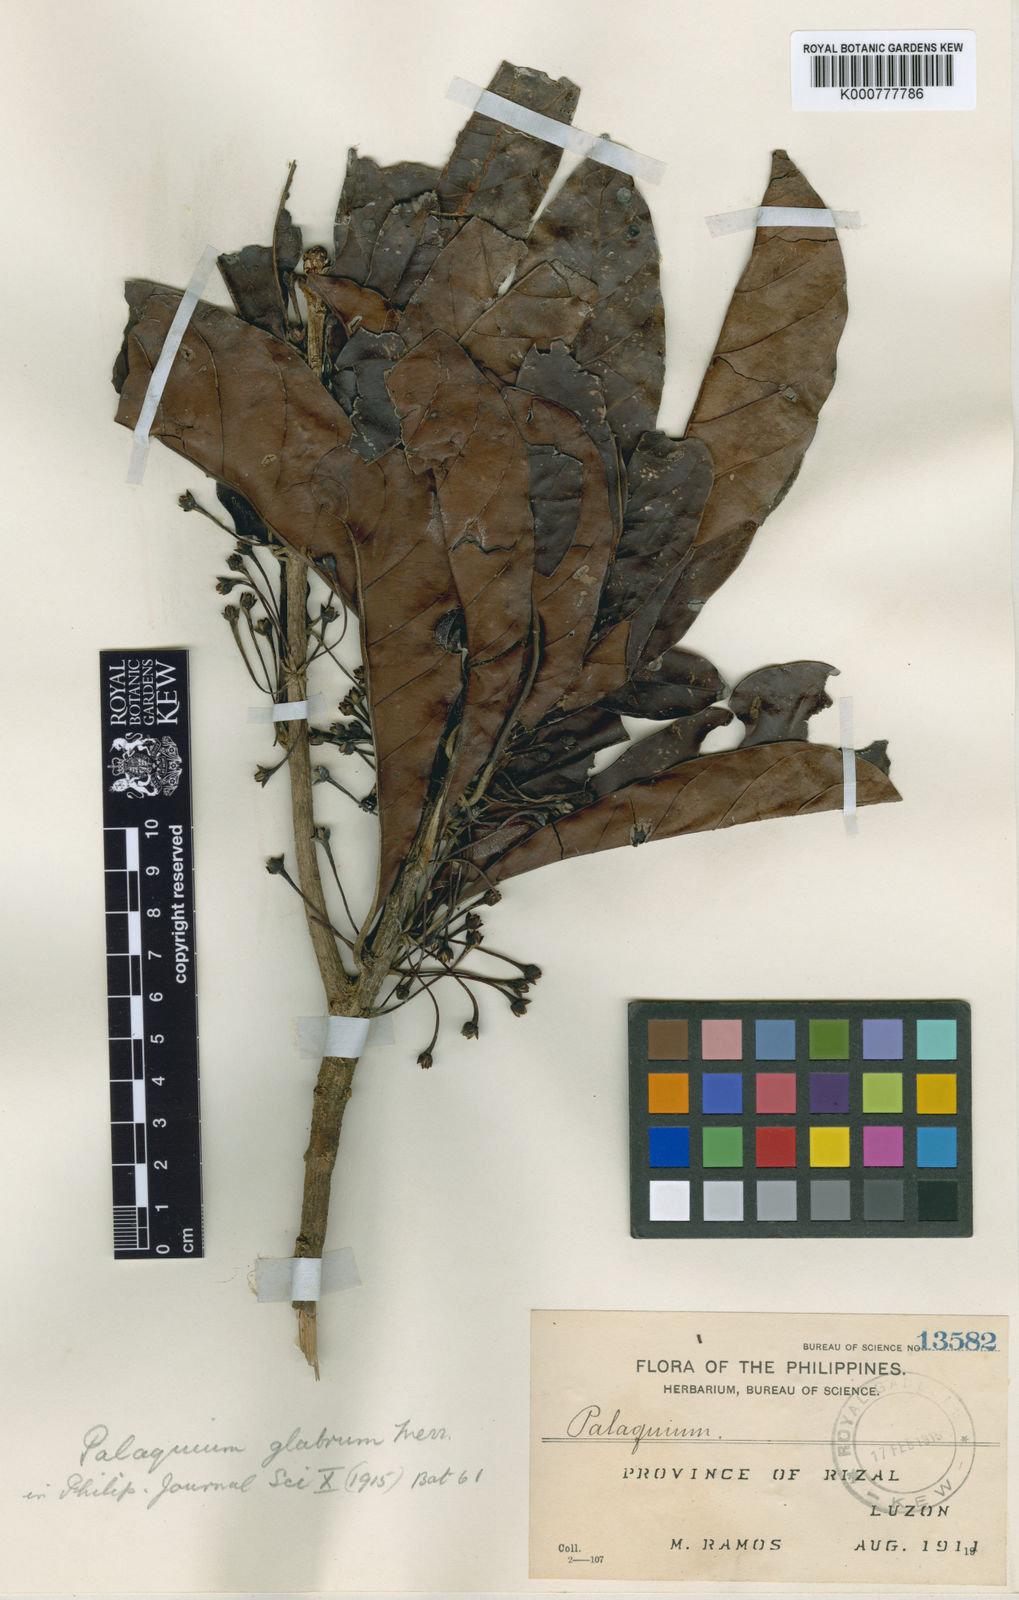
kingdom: Plantae
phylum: Tracheophyta
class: Magnoliopsida
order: Ericales
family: Sapotaceae
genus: Palaquium
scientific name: Palaquium glabrum
